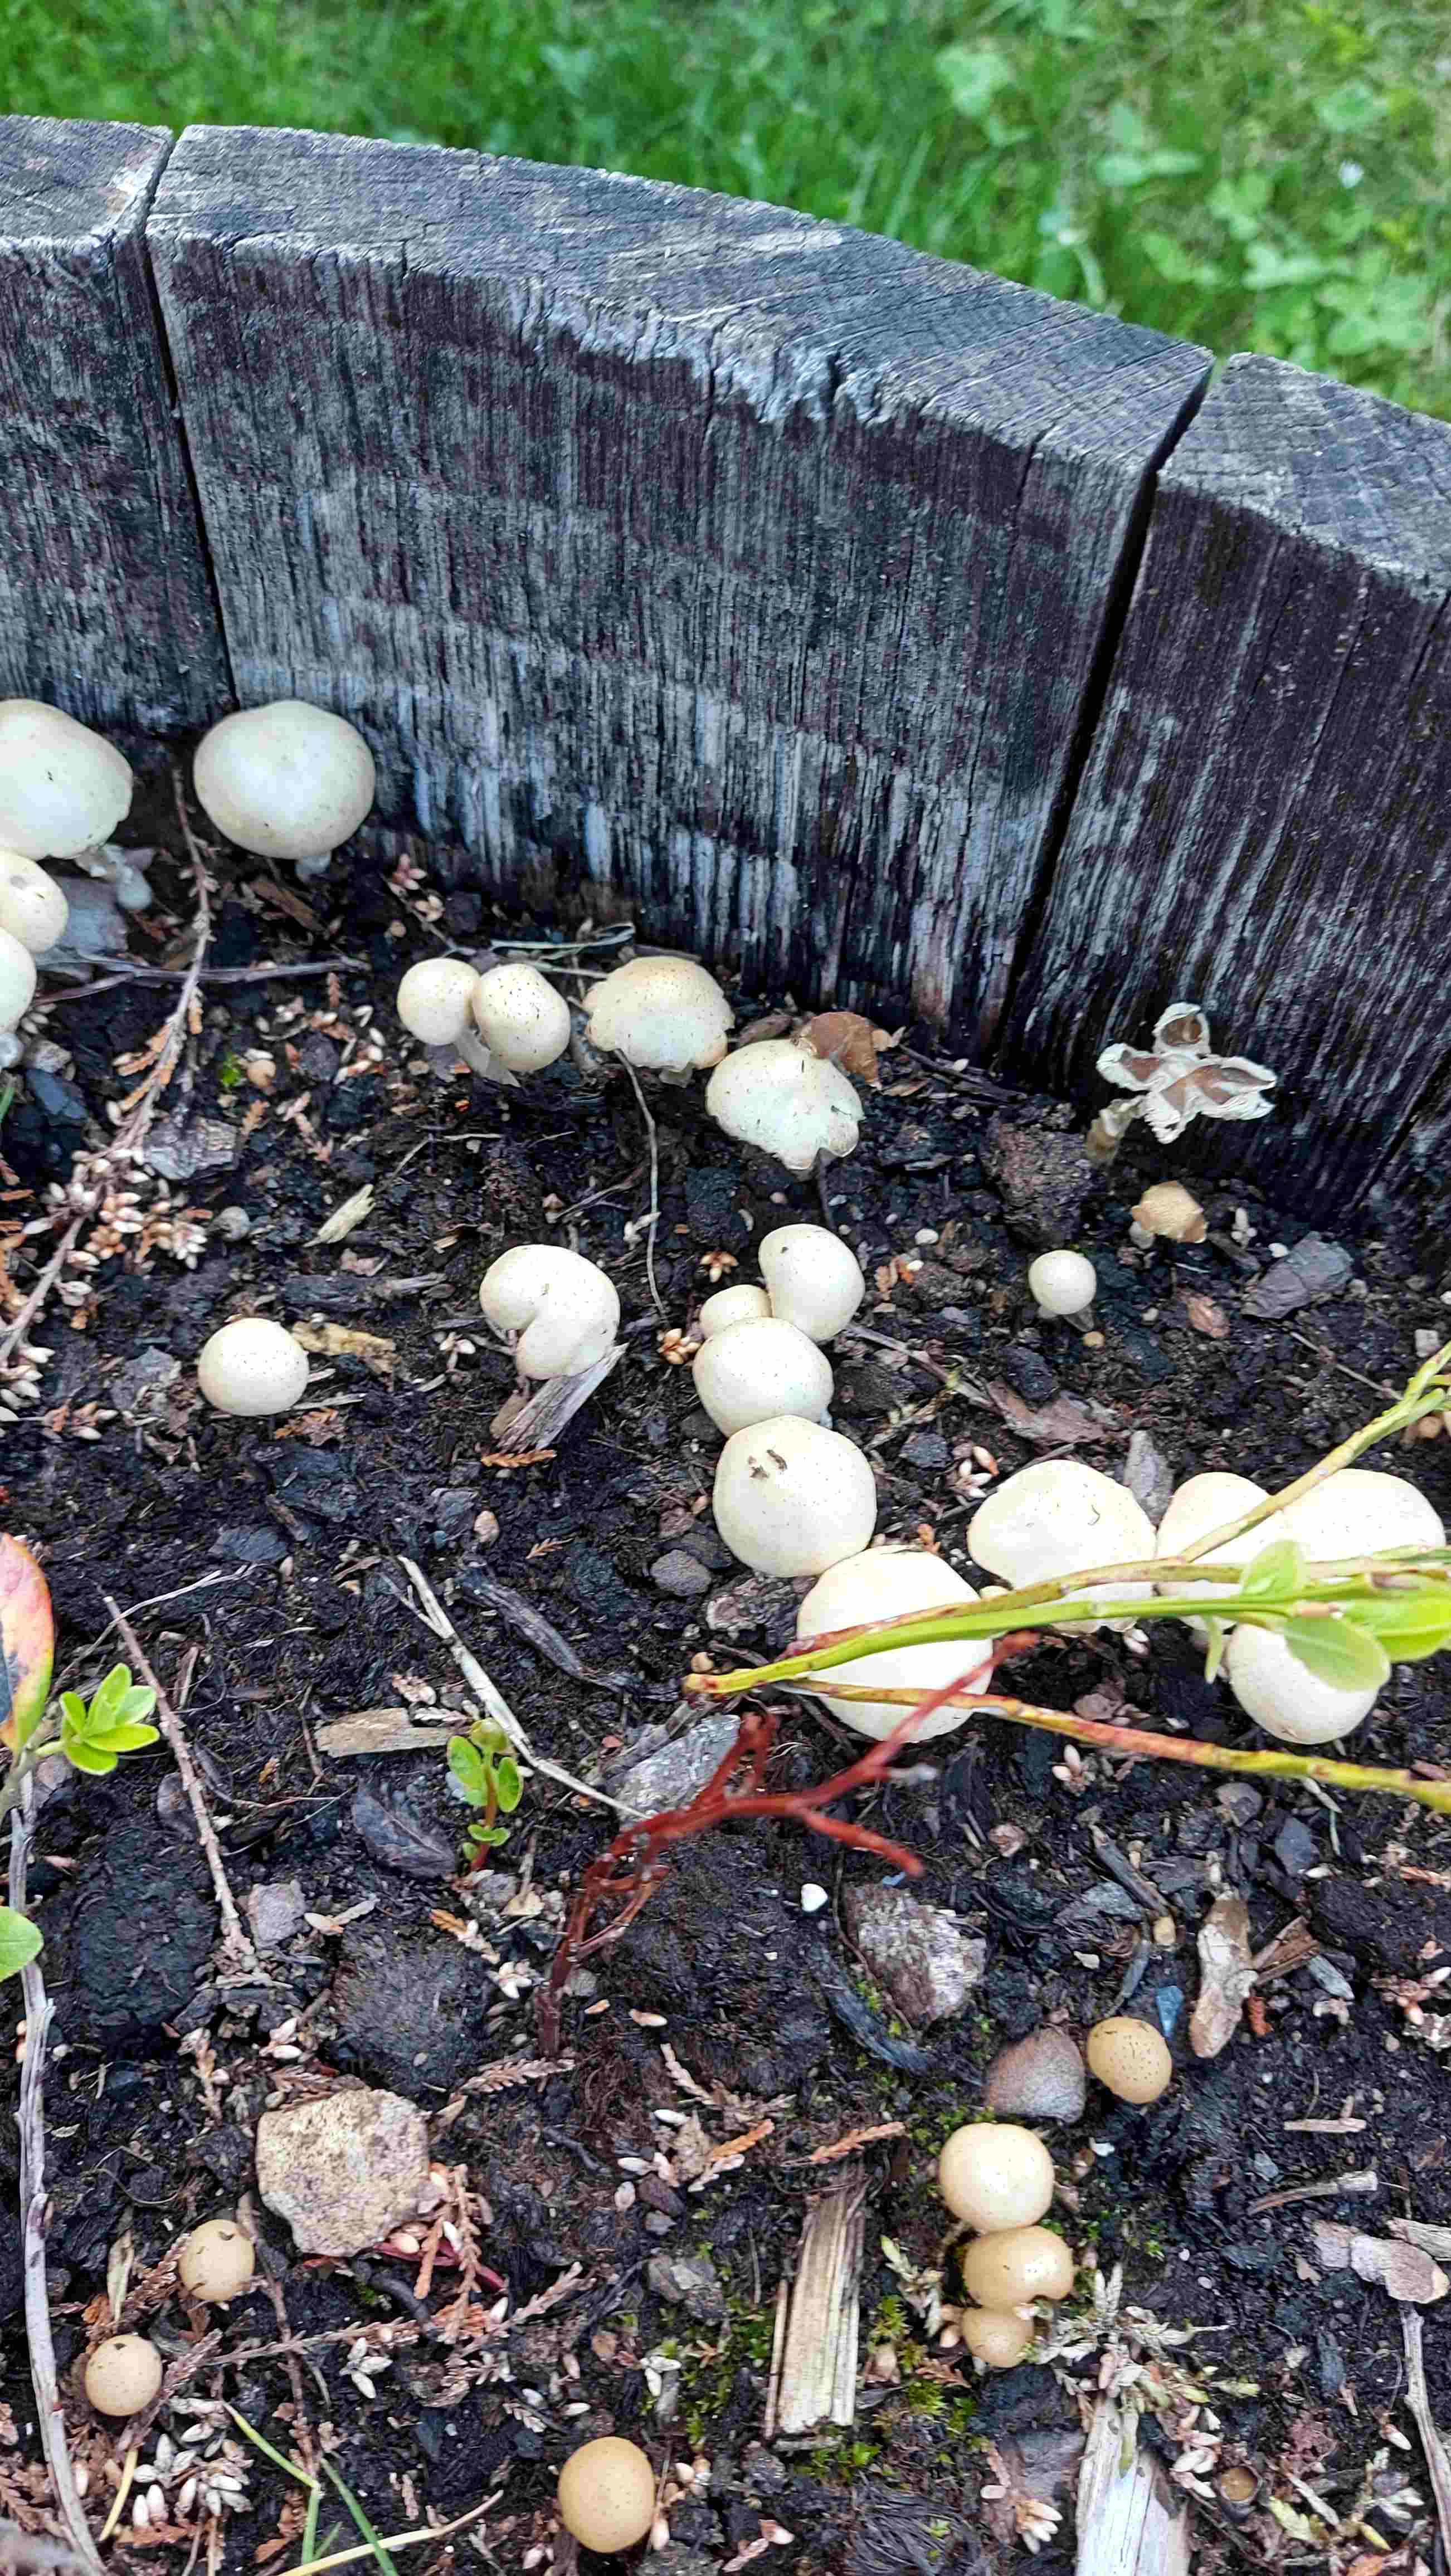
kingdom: Fungi
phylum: Basidiomycota
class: Agaricomycetes
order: Agaricales
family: Psathyrellaceae
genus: Candolleomyces
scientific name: Candolleomyces candolleanus
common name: Candolles mørkhat
